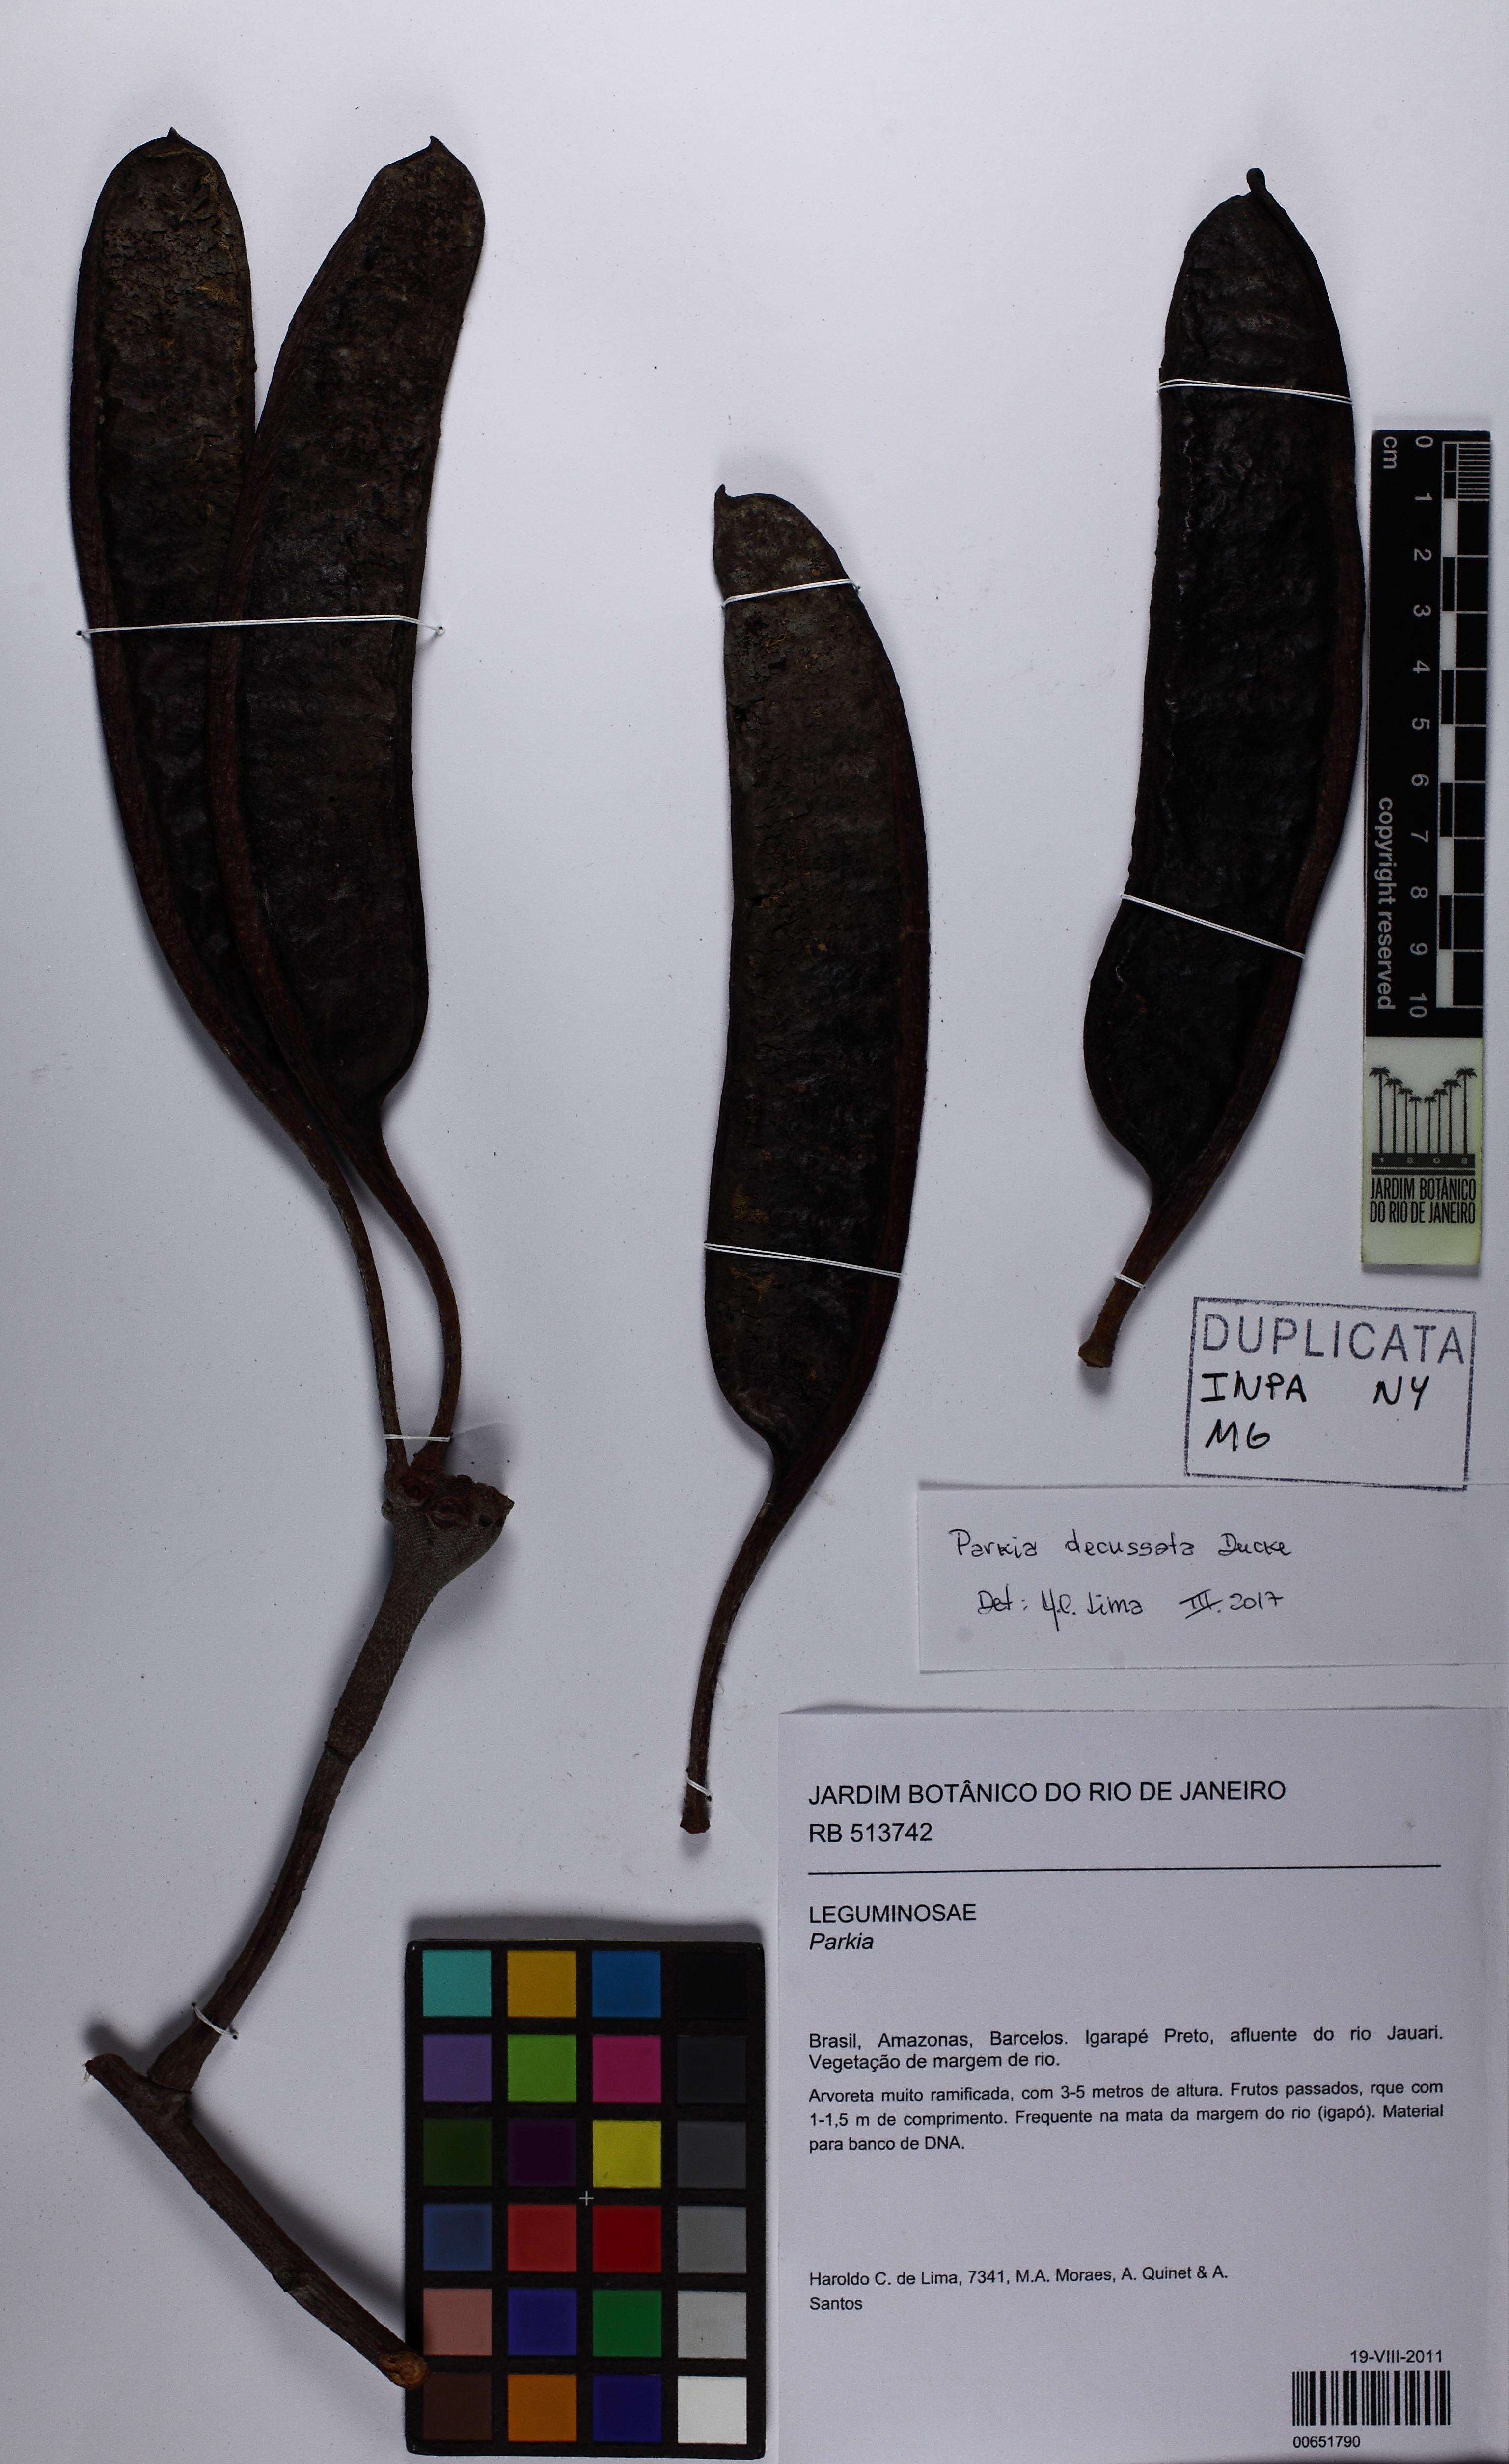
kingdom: Plantae
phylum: Tracheophyta
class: Magnoliopsida
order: Fabales
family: Fabaceae
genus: Parkia
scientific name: Parkia decussata
